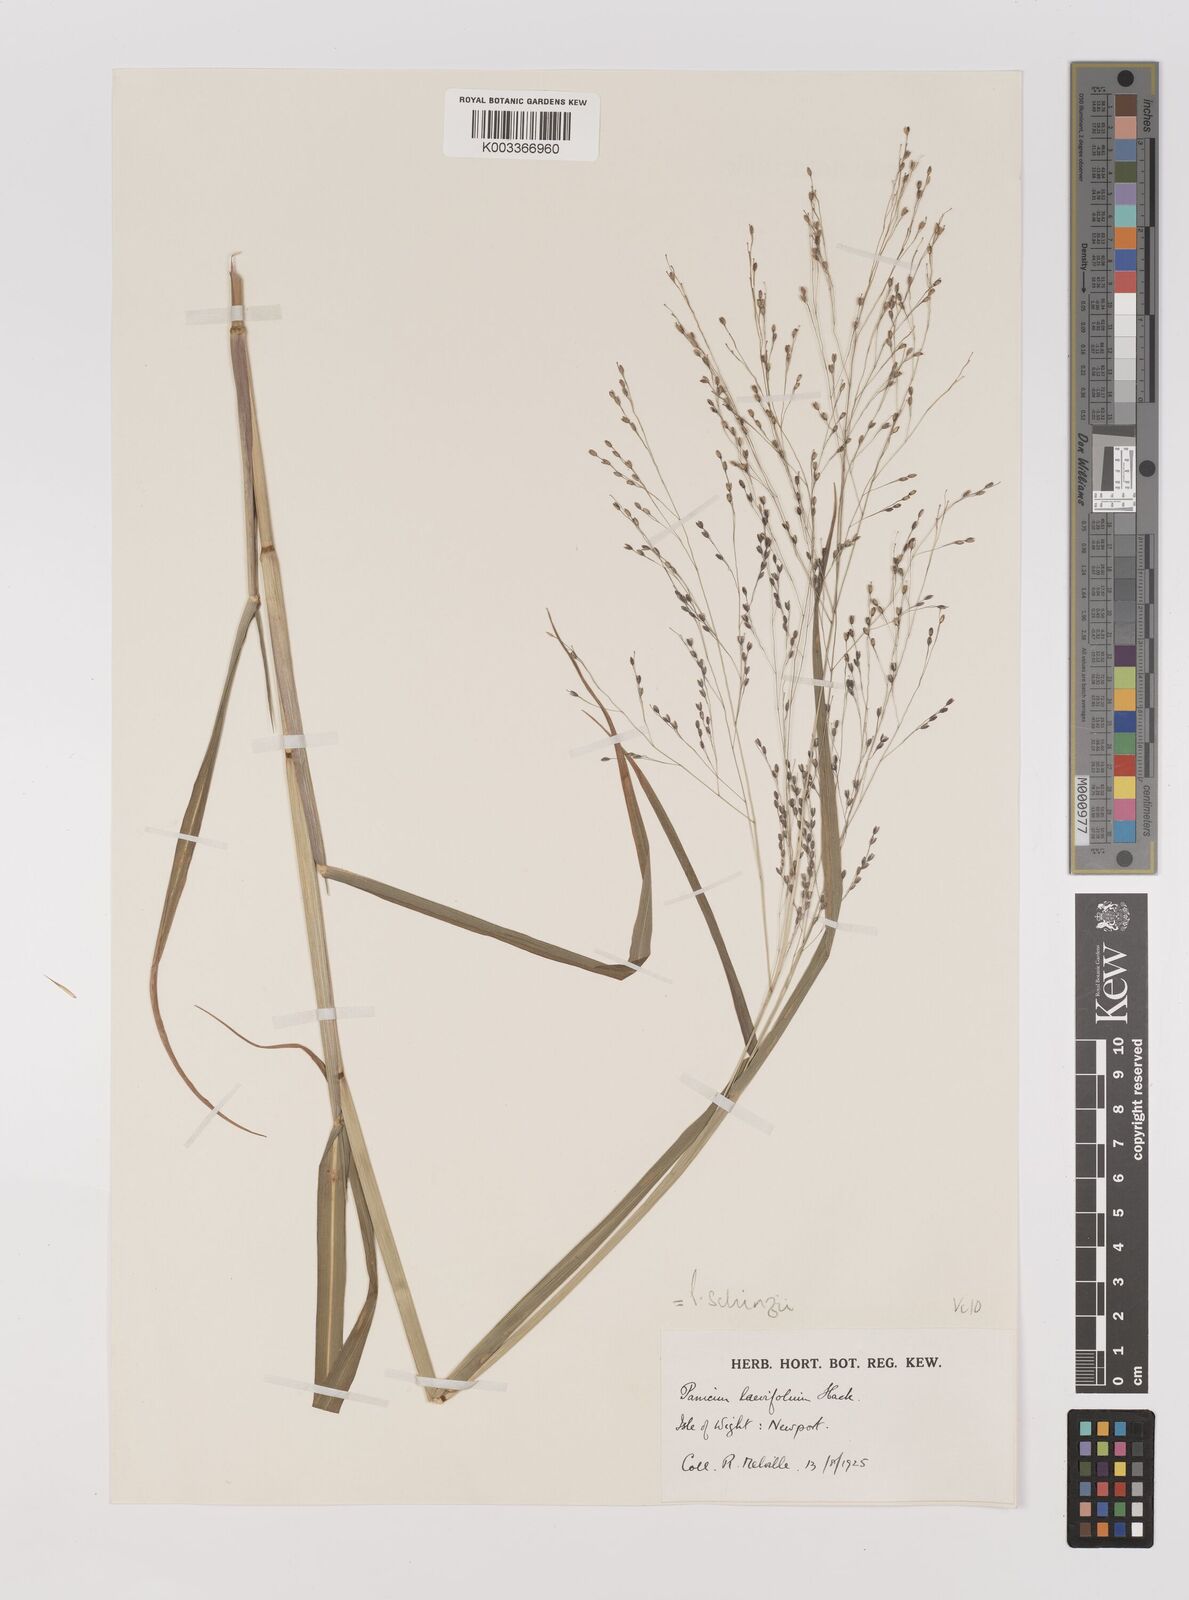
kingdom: Plantae
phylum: Tracheophyta
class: Liliopsida
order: Poales
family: Poaceae
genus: Panicum
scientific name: Panicum schinzii
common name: Sweet grass
